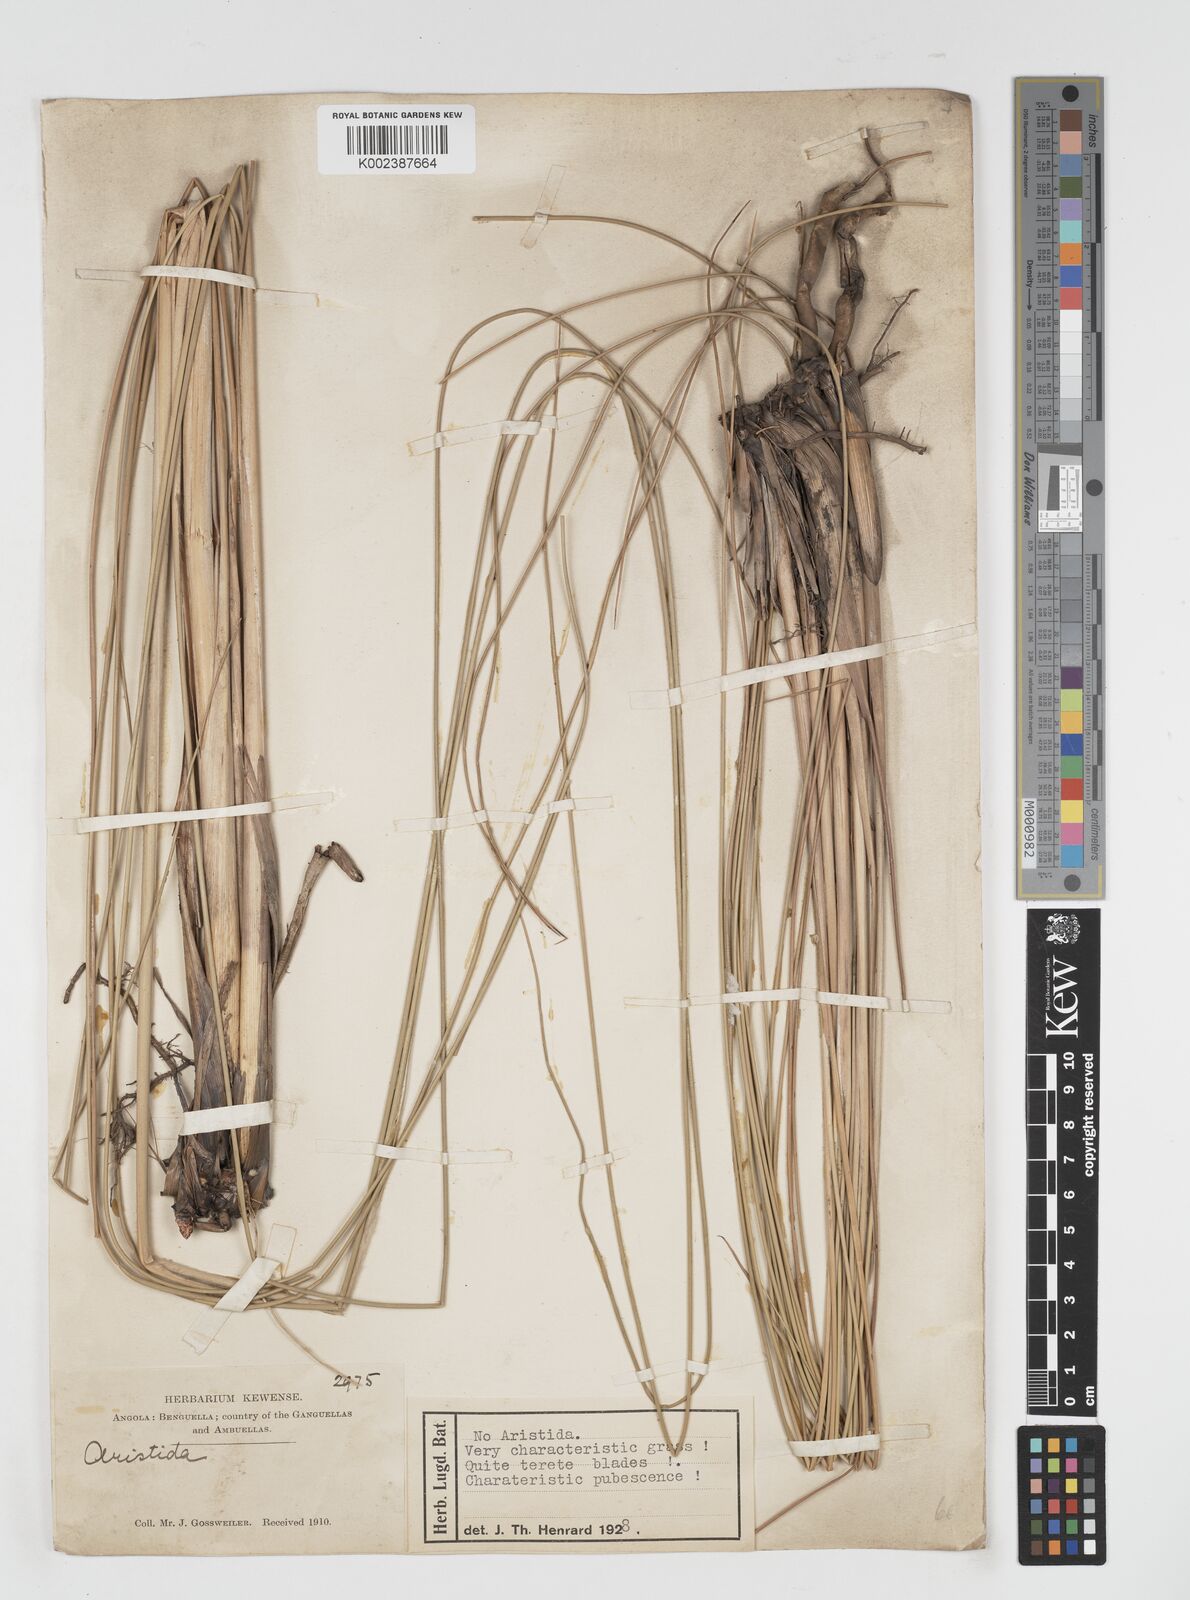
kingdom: Plantae
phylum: Tracheophyta
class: Liliopsida
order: Poales
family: Poaceae
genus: Miscanthidium
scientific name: Miscanthidium junceum
